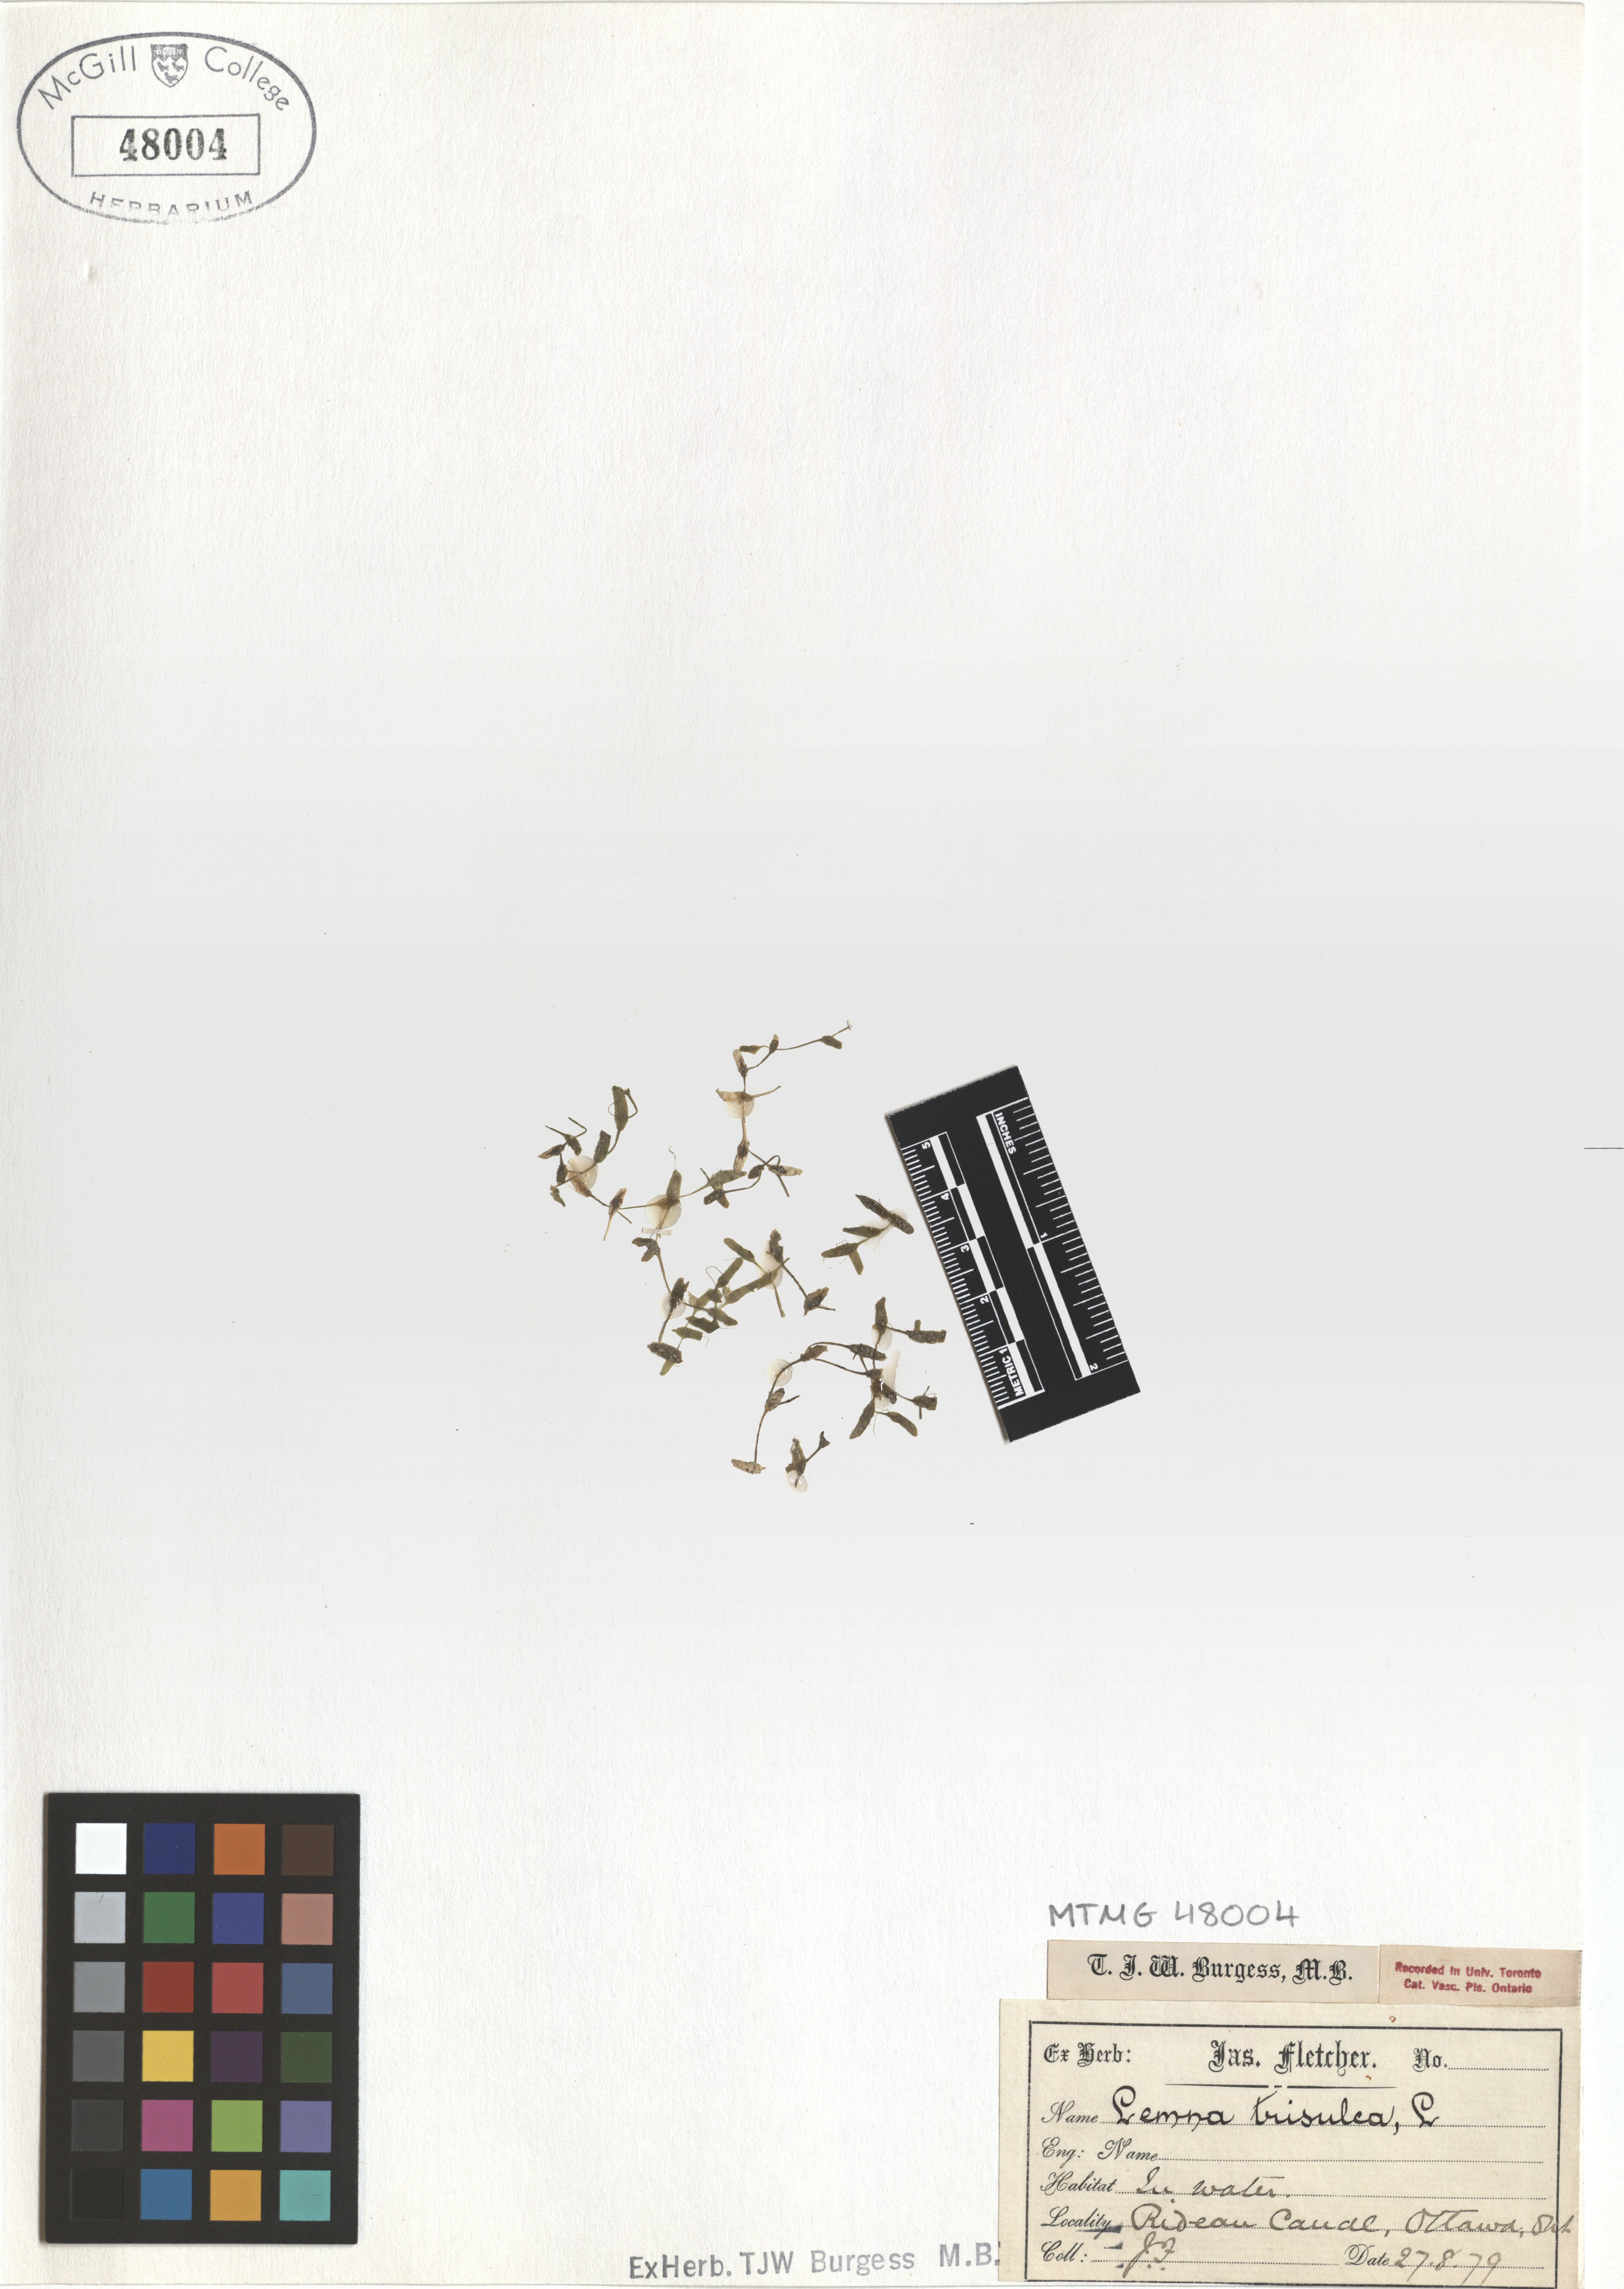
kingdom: Plantae
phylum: Tracheophyta
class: Liliopsida
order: Alismatales
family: Araceae
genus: Lemna
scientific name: Lemna trisulca
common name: Ivy-leaved duckweed
